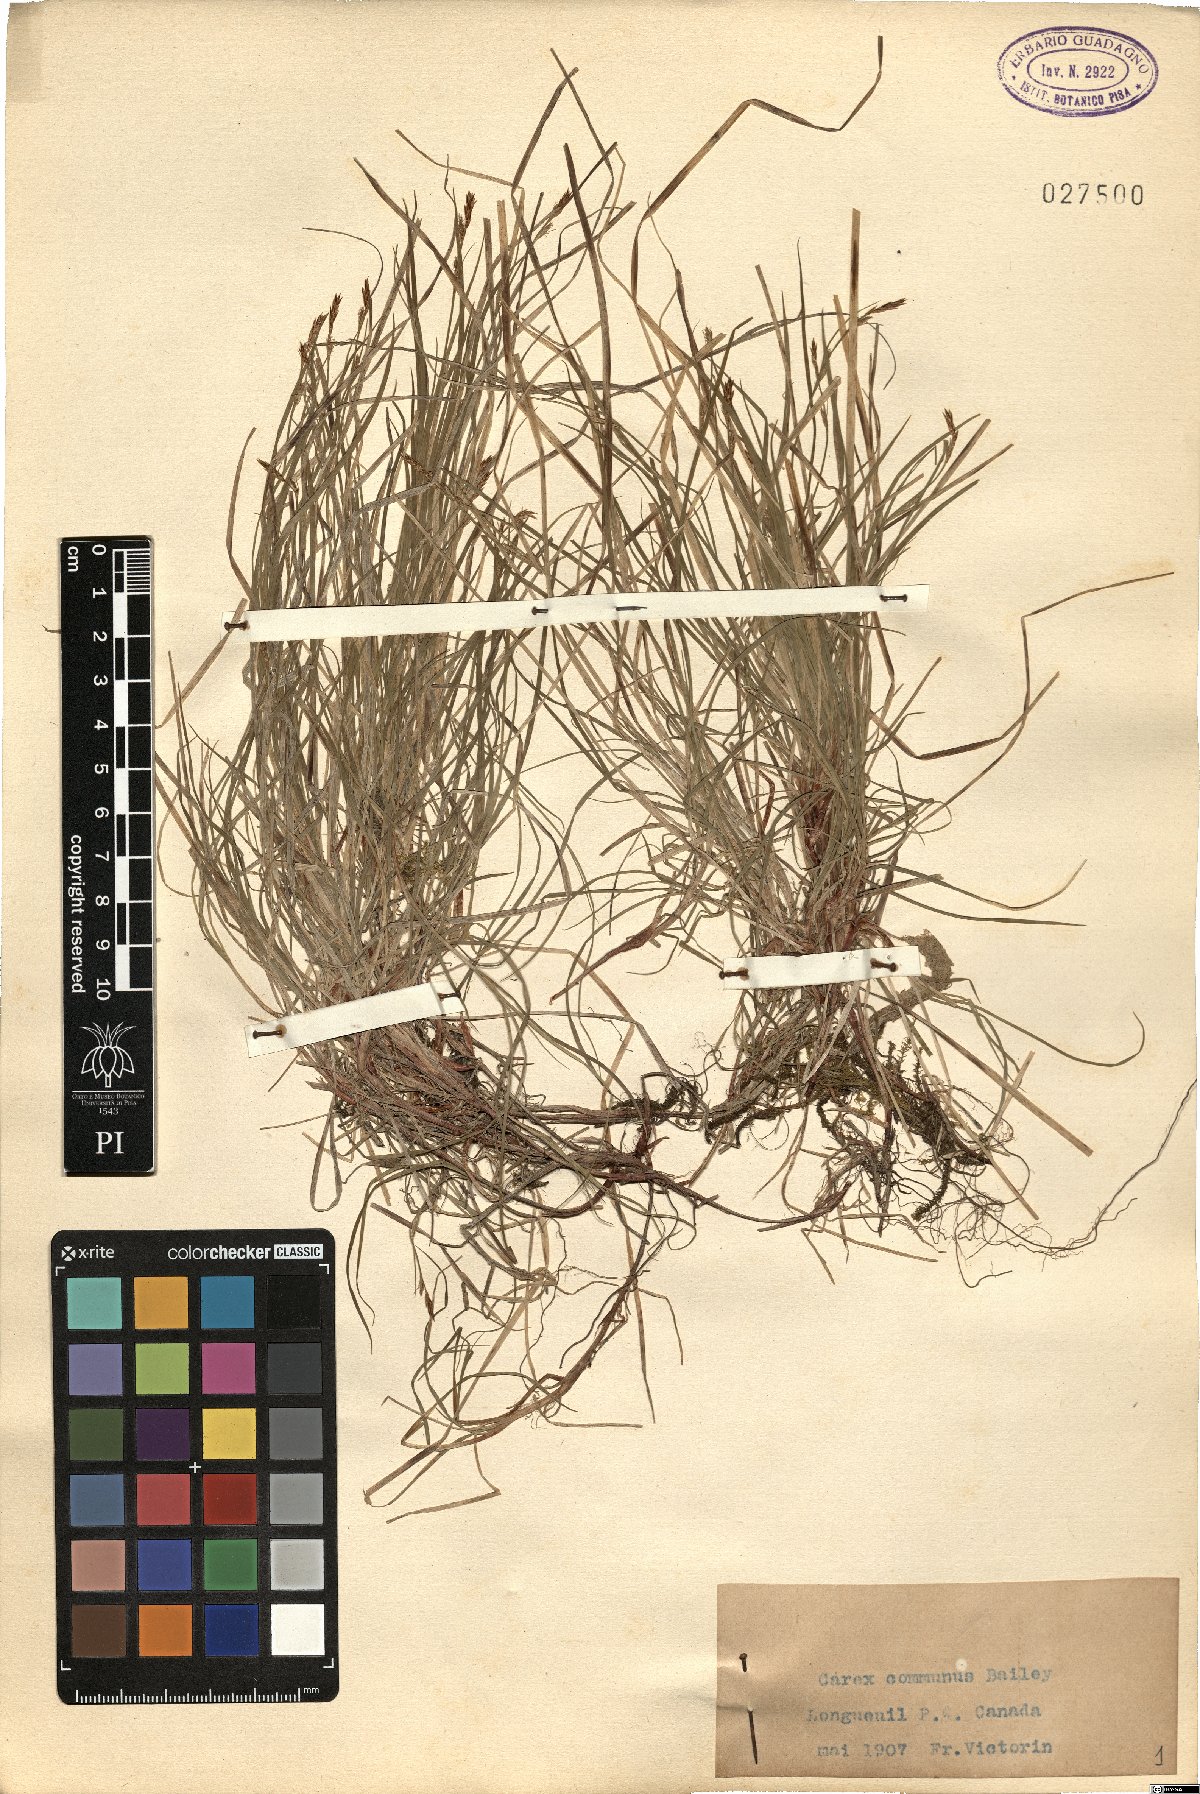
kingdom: Plantae
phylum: Tracheophyta
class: Liliopsida
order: Poales
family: Cyperaceae
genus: Carex
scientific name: Carex communis
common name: Colonial oak sedge
